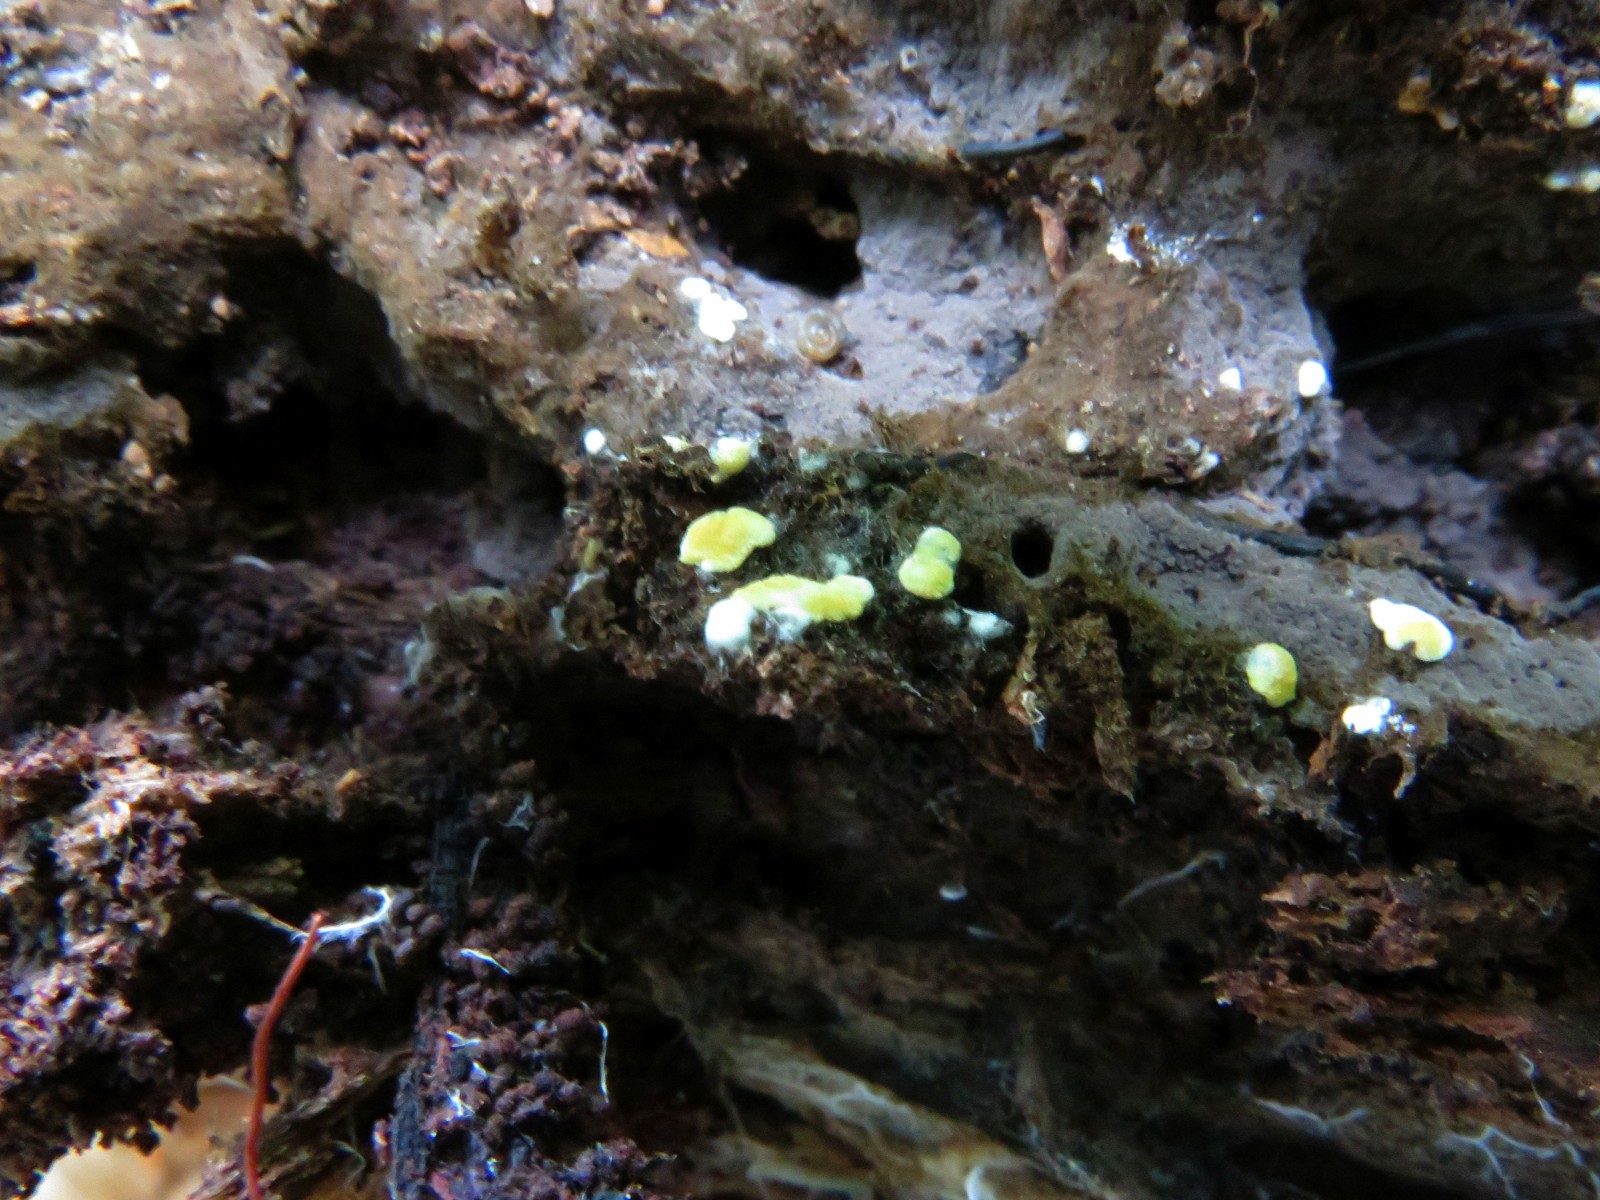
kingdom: Fungi
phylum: Basidiomycota
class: Agaricomycetes
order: Cantharellales
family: Botryobasidiaceae
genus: Botryobasidium
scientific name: Botryobasidium aureum
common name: gylden spindhinde
